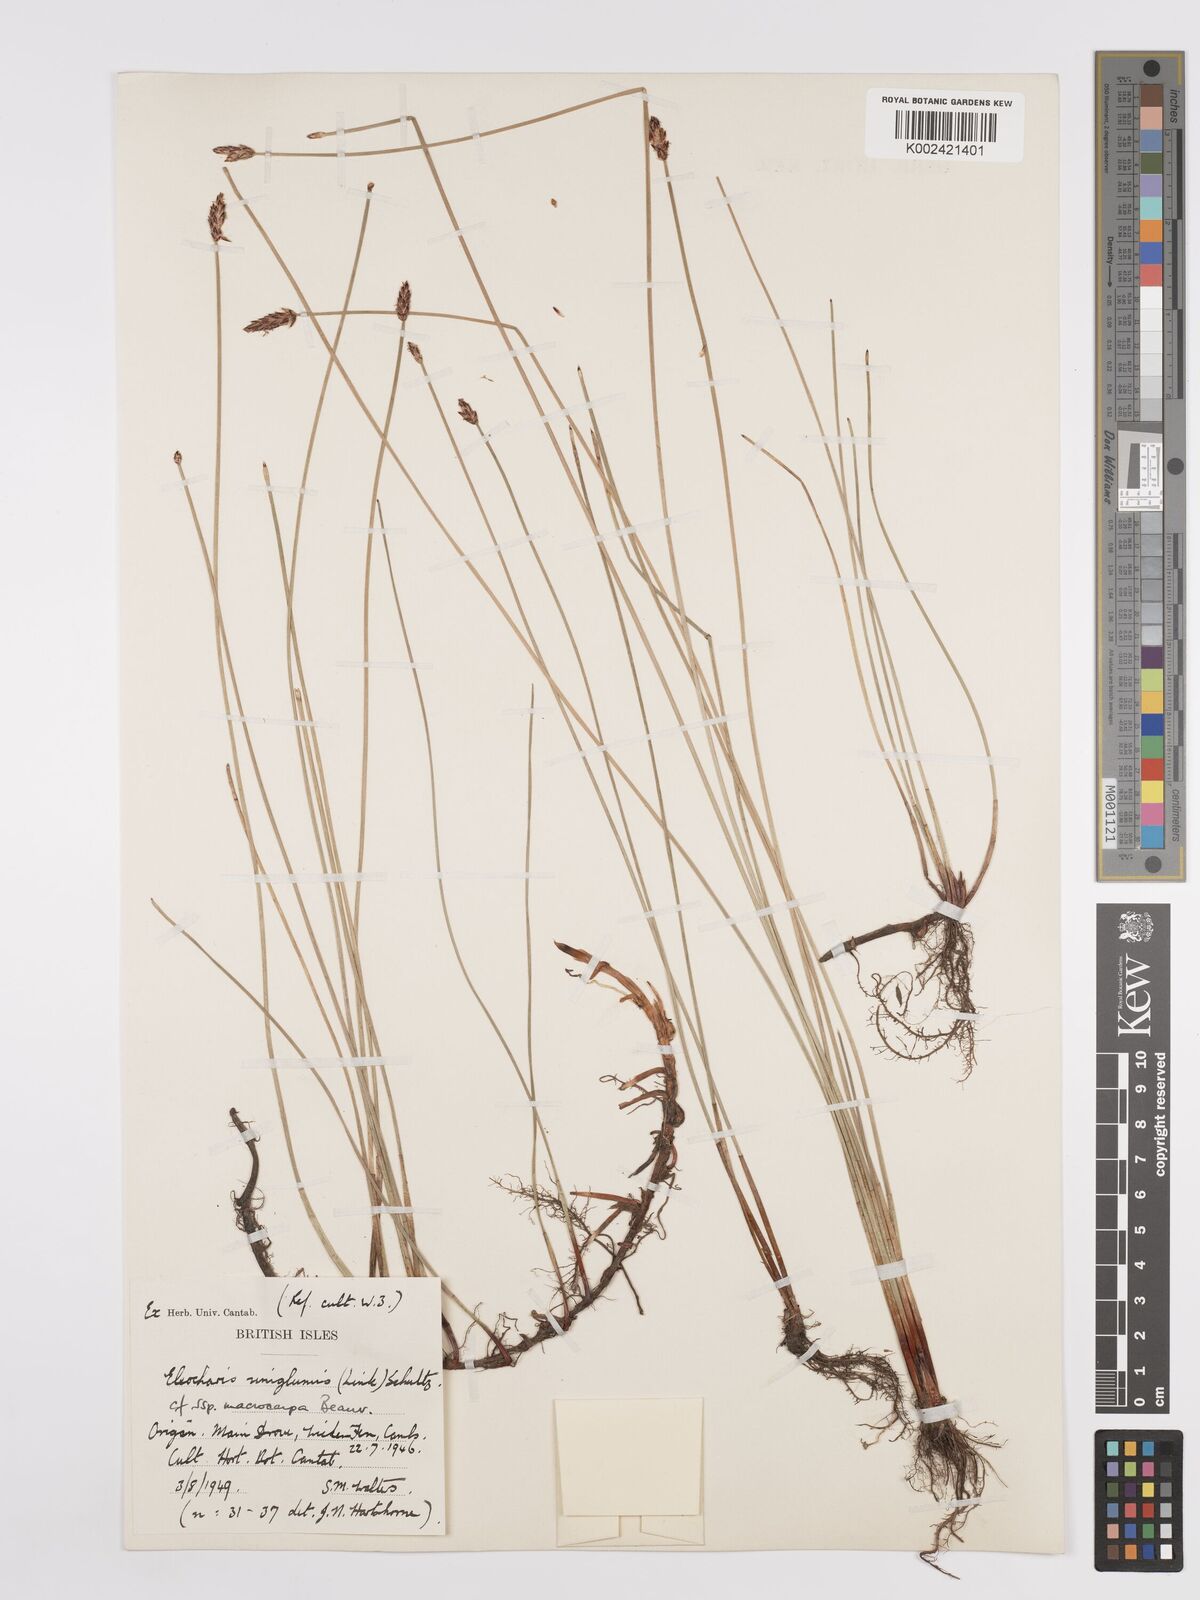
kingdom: Plantae
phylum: Tracheophyta
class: Liliopsida
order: Poales
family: Cyperaceae
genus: Eleocharis
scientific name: Eleocharis uniglumis
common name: Slender spike-rush
